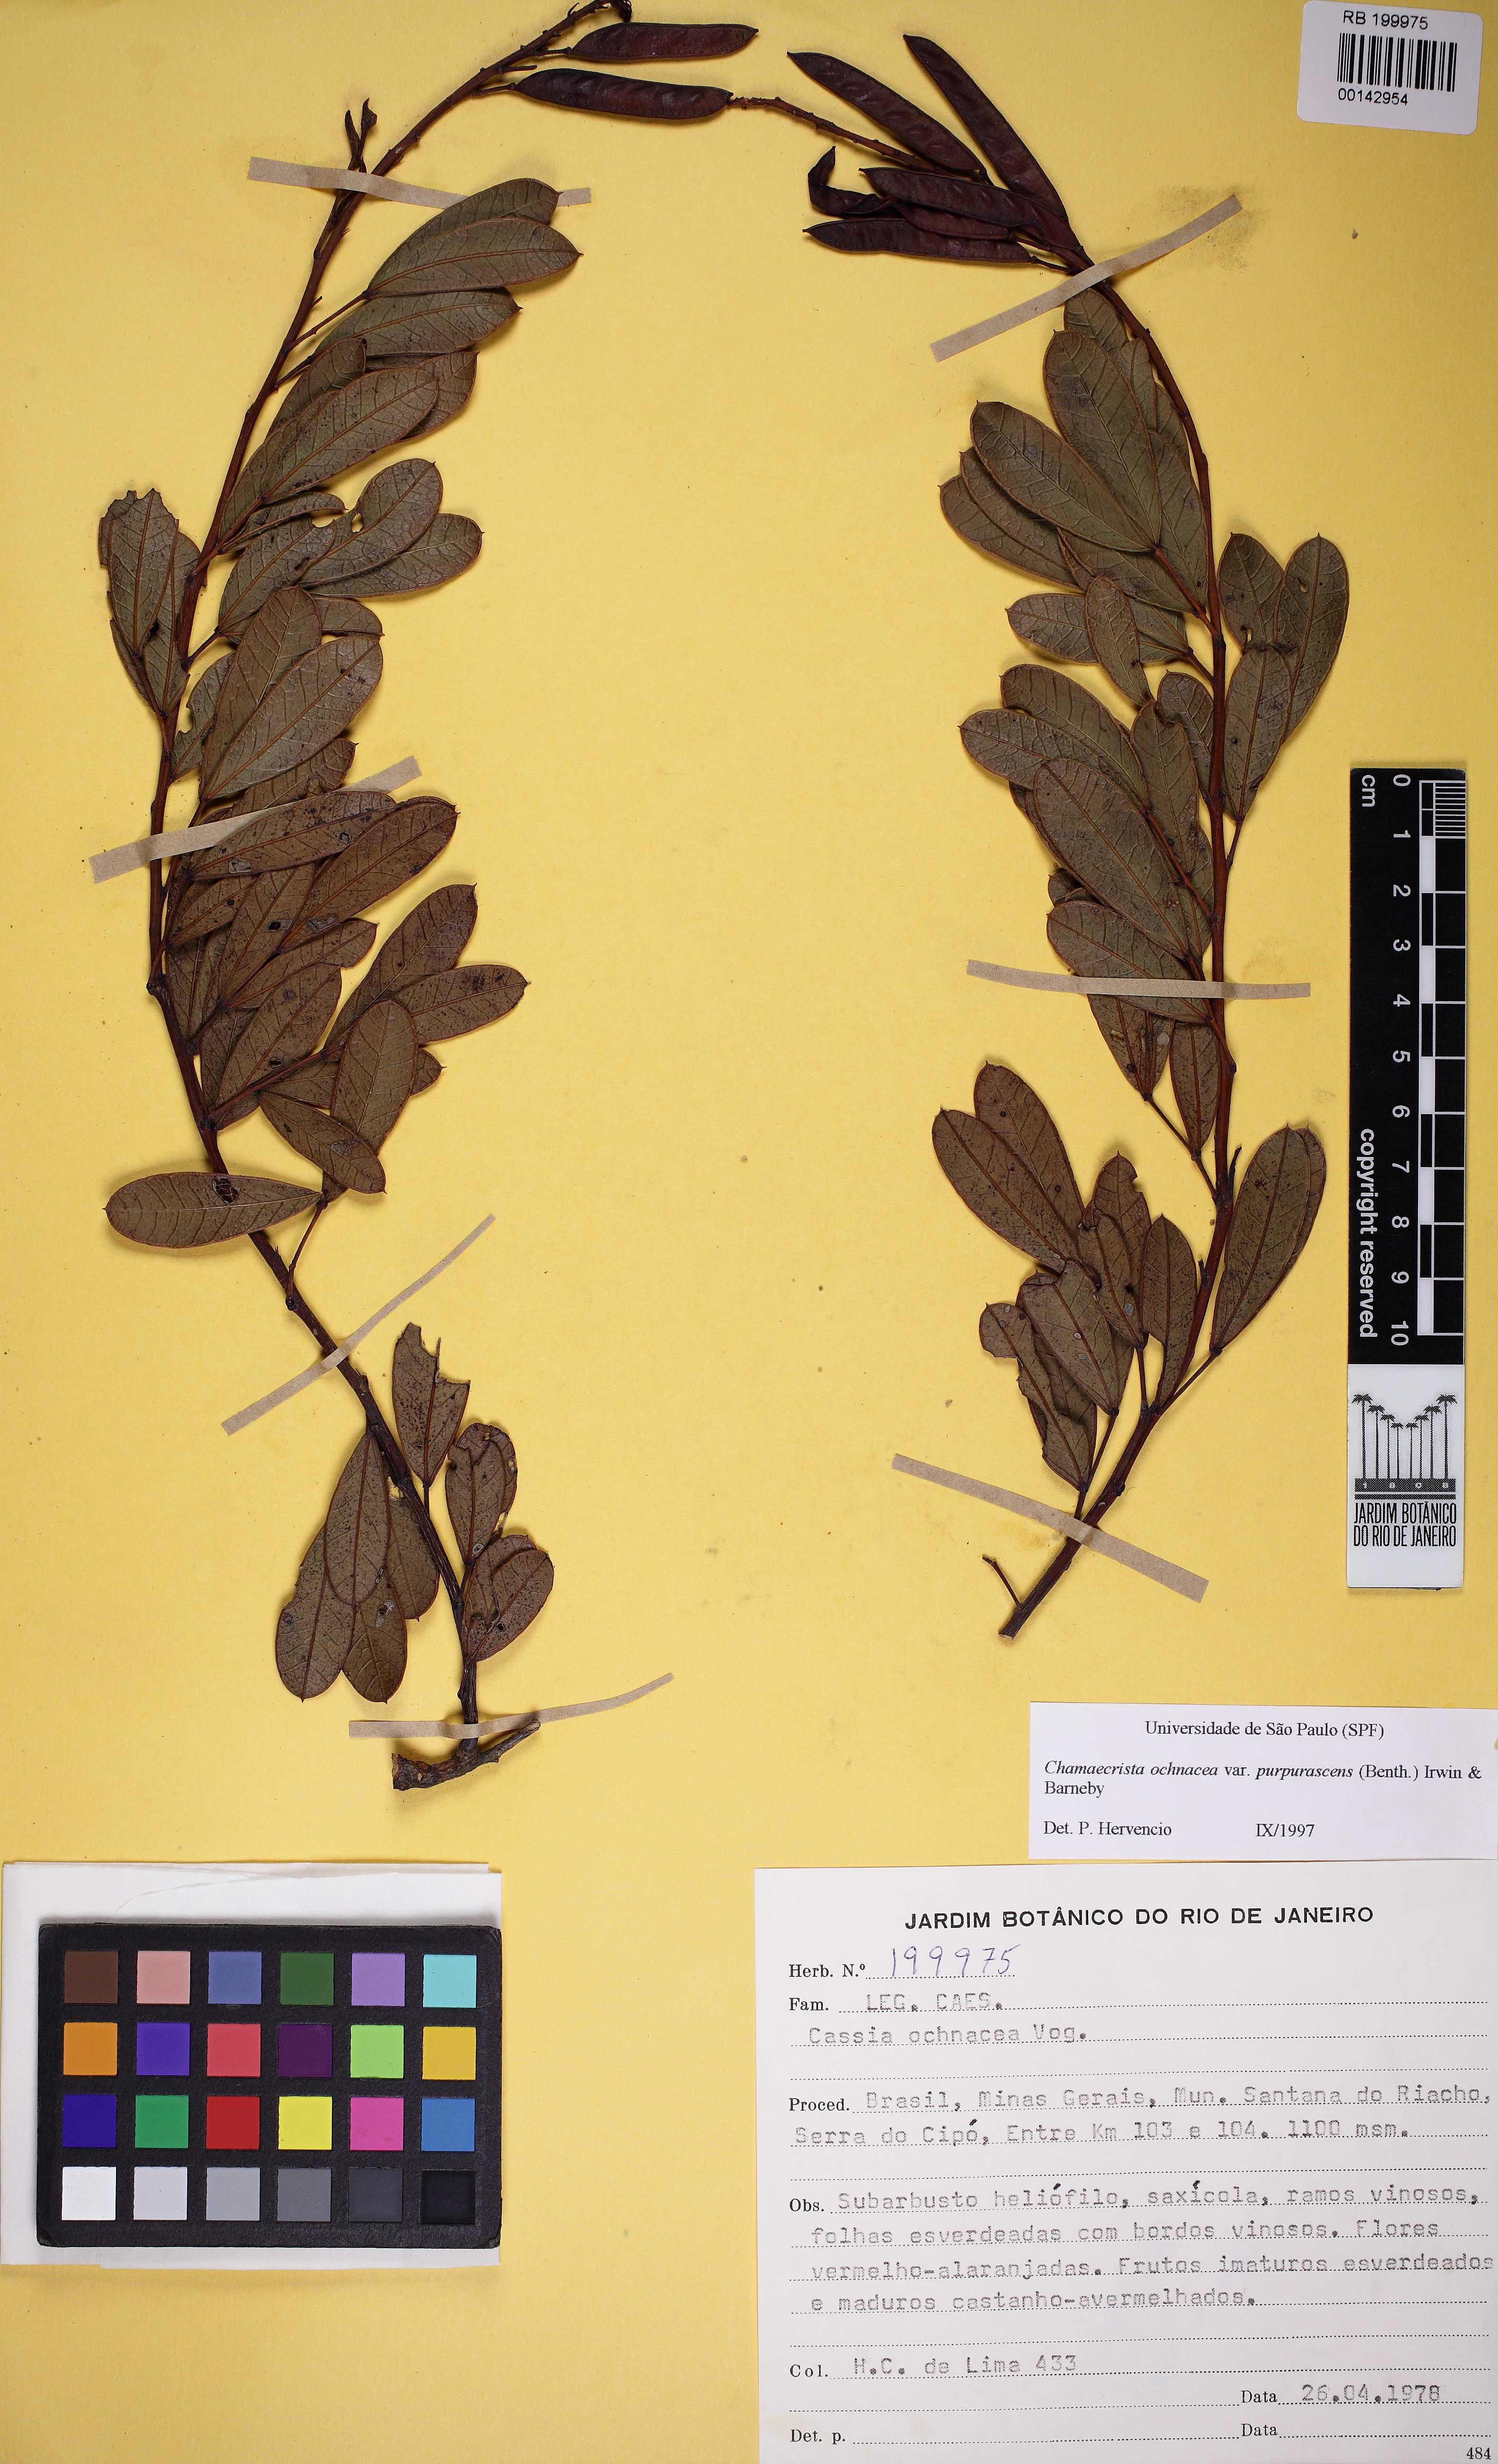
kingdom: Plantae
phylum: Tracheophyta
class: Magnoliopsida
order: Fabales
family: Fabaceae
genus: Chamaecrista
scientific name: Chamaecrista ochnacea
